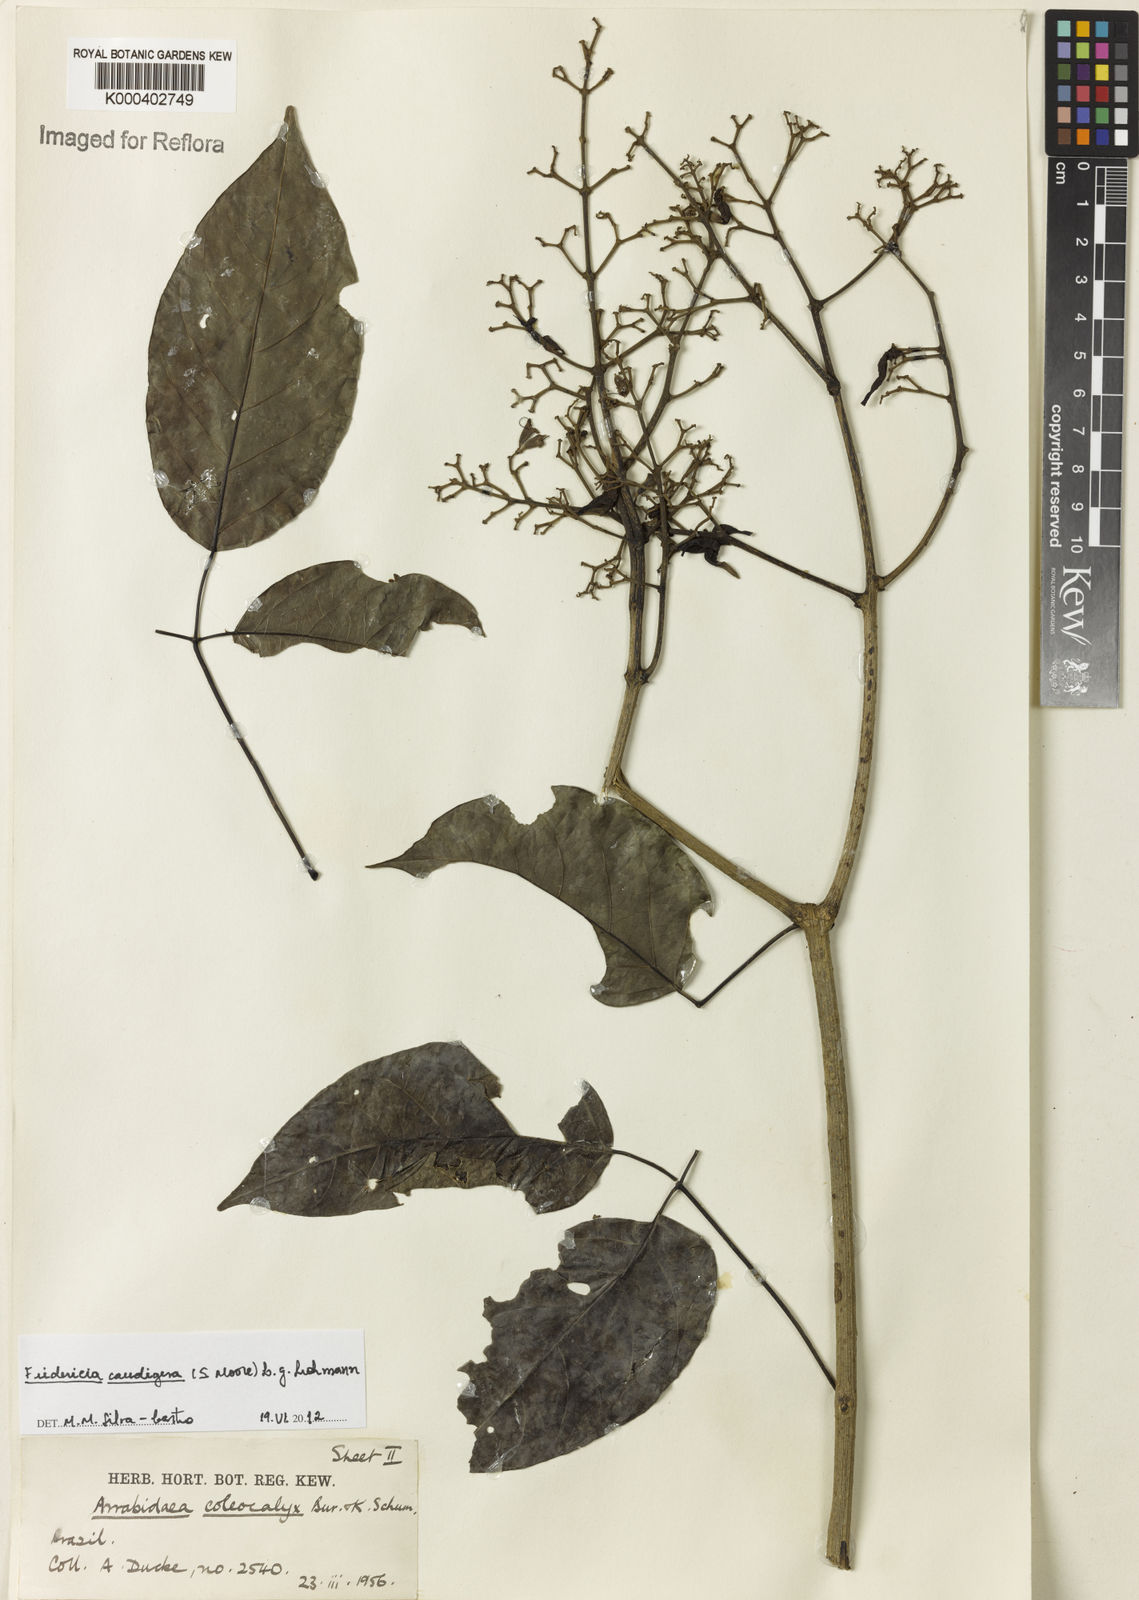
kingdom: Plantae
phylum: Tracheophyta
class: Magnoliopsida
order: Lamiales
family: Bignoniaceae
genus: Fridericia
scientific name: Fridericia caudigera
